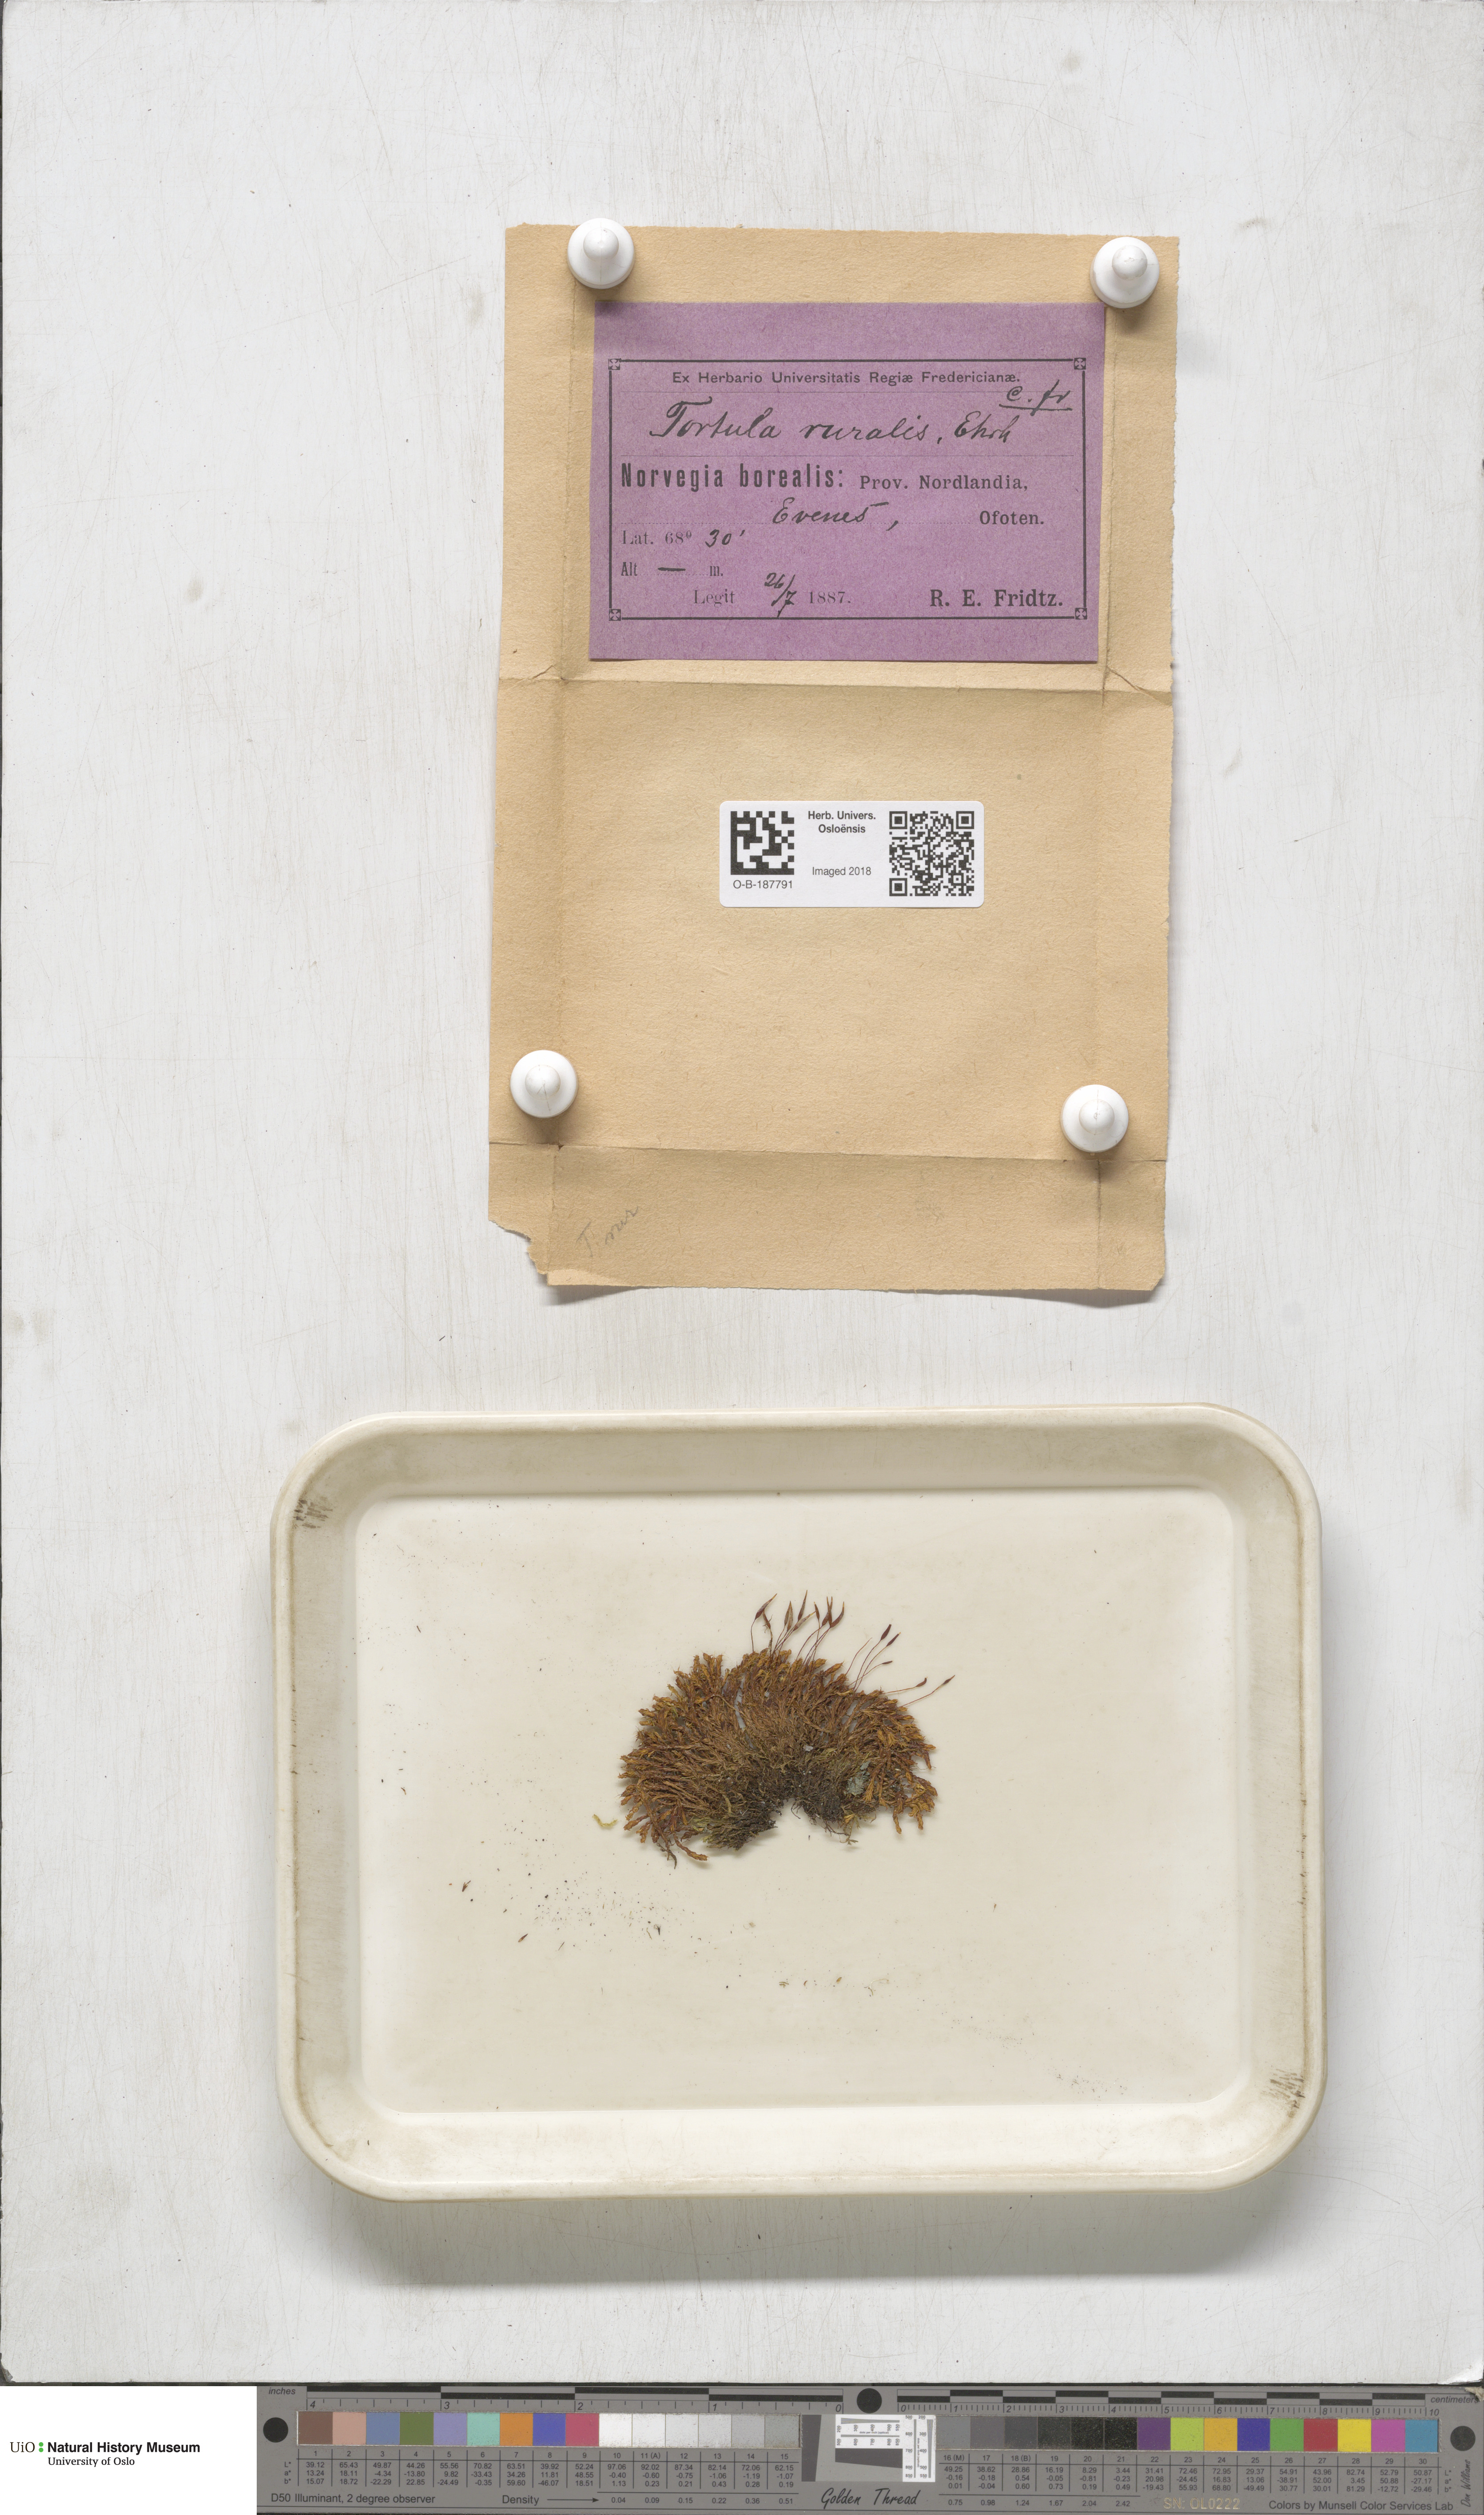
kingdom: Plantae
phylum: Bryophyta
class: Bryopsida
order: Pottiales
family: Pottiaceae
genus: Syntrichia
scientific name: Syntrichia ruralis
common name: Sidewalk screw moss
